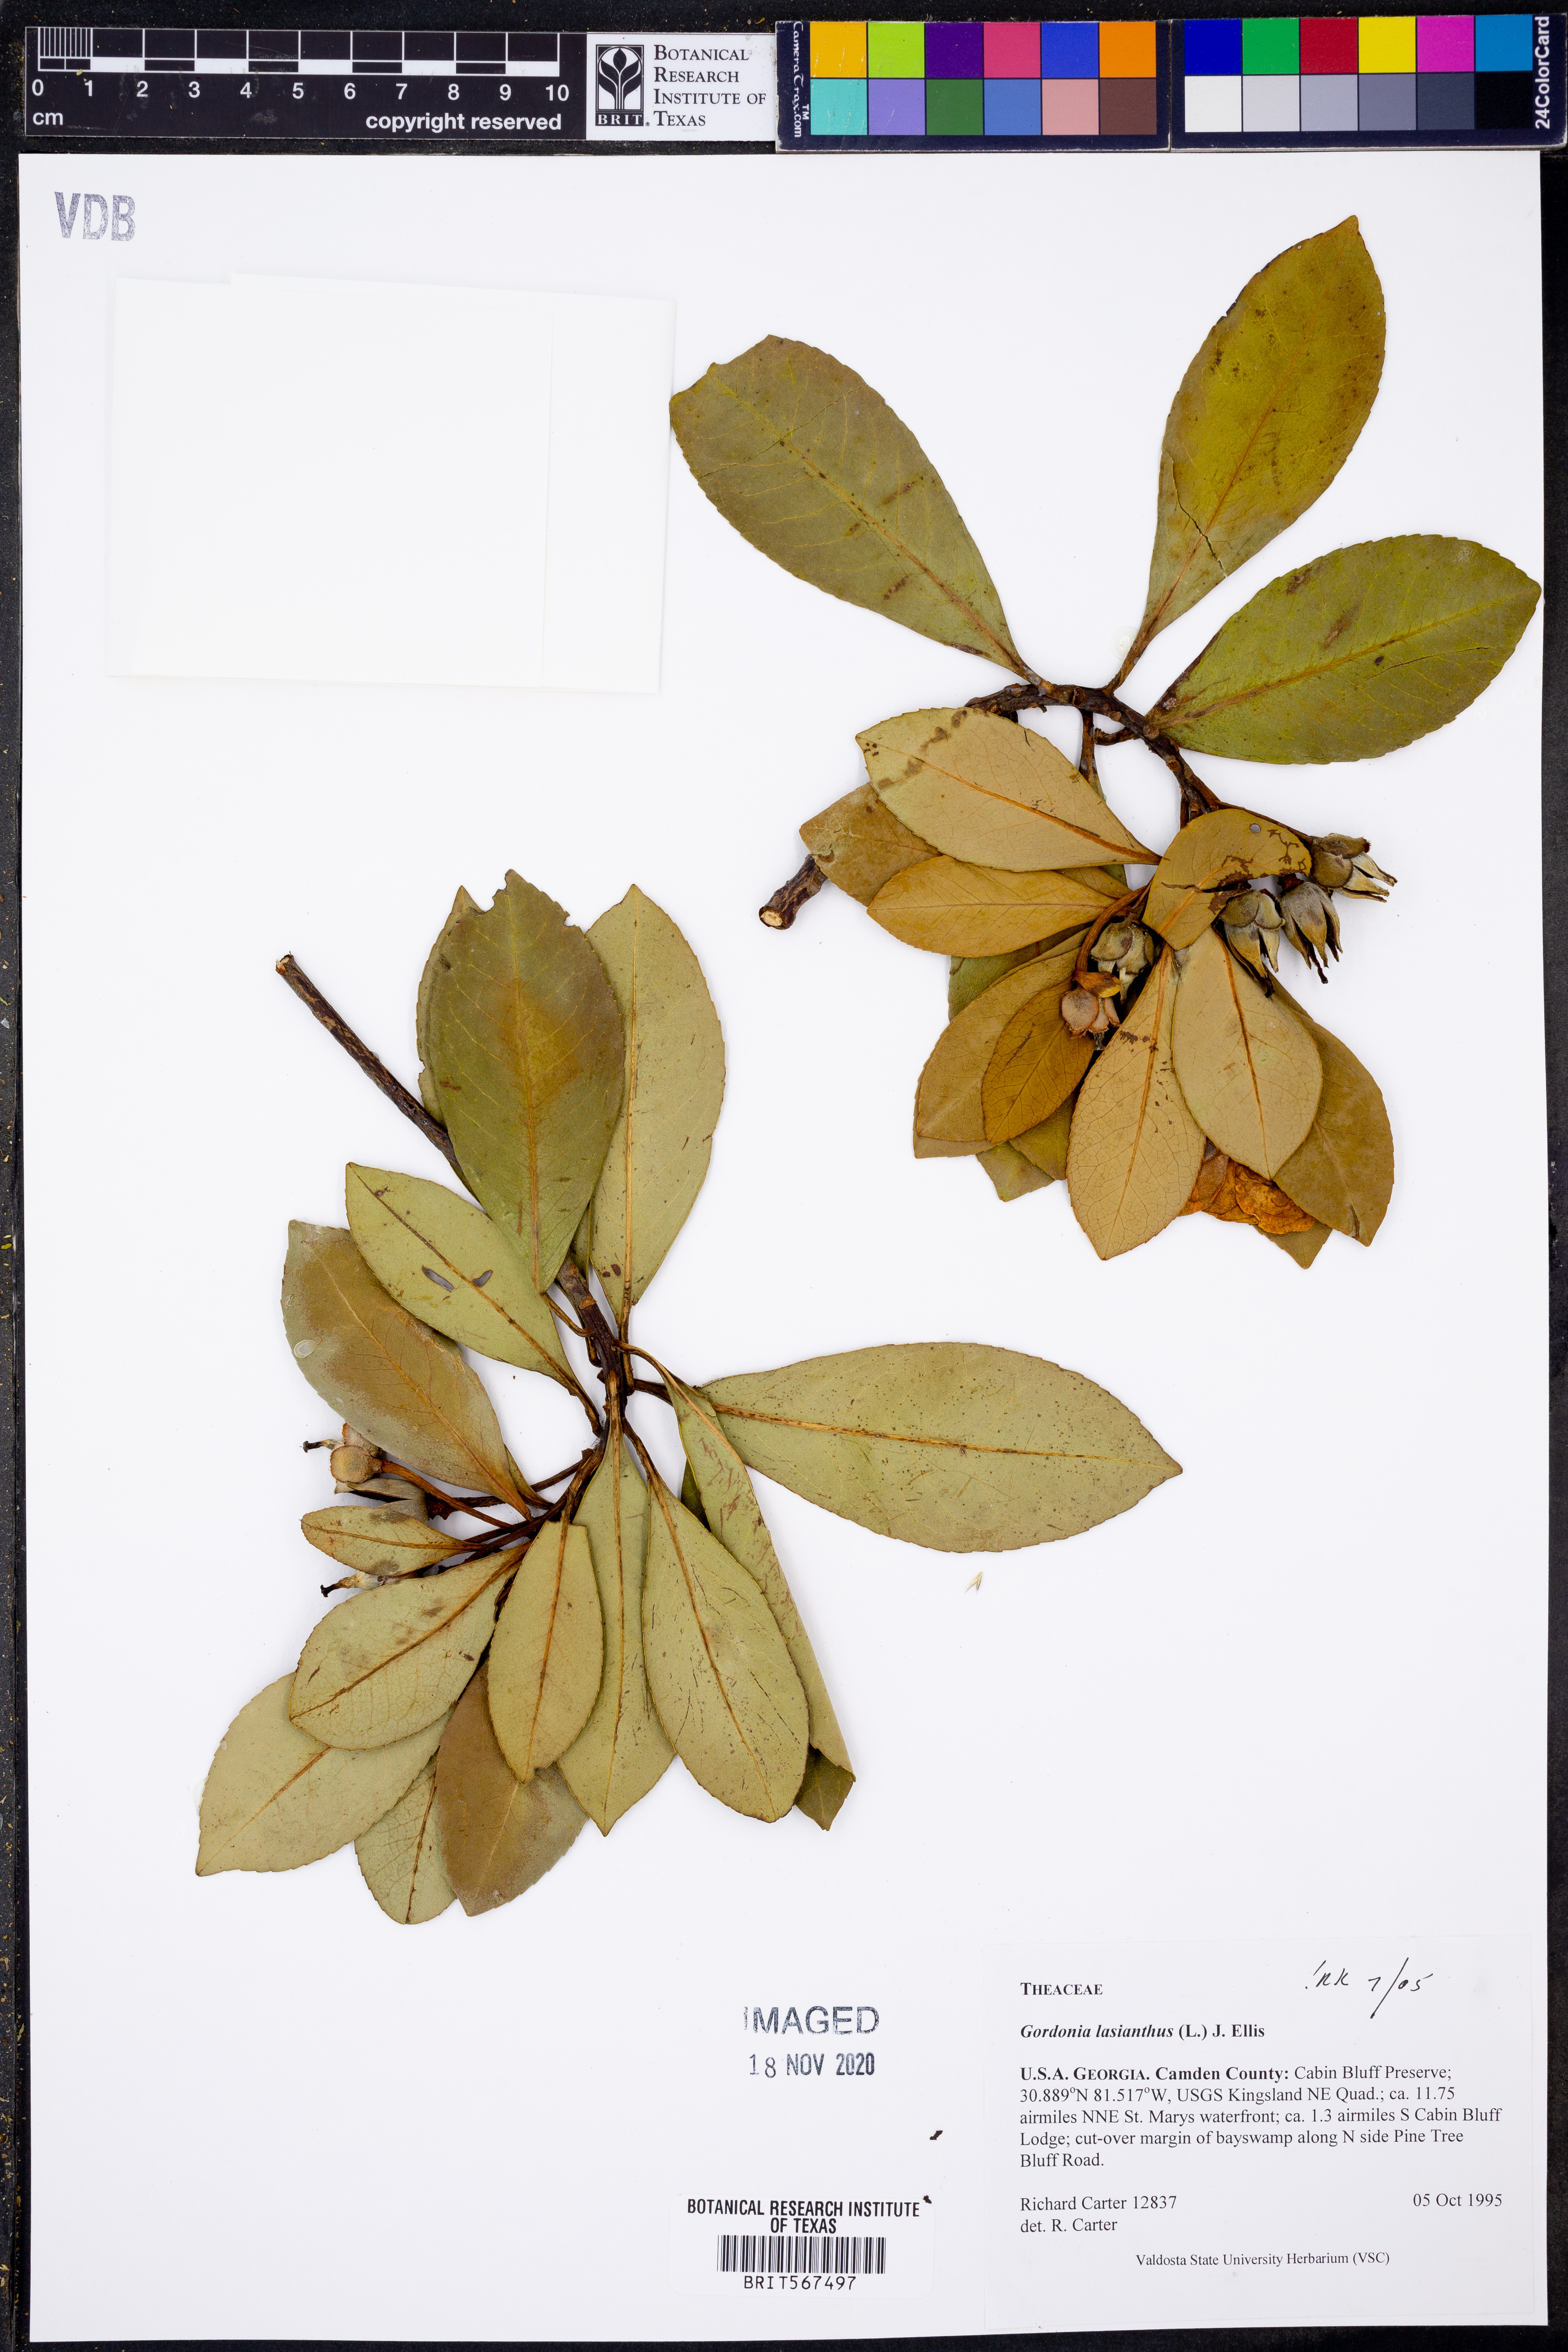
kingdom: Plantae
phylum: Tracheophyta
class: Magnoliopsida
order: Ericales
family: Theaceae
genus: Gordonia
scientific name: Gordonia lasianthus
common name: Loblolly bay
